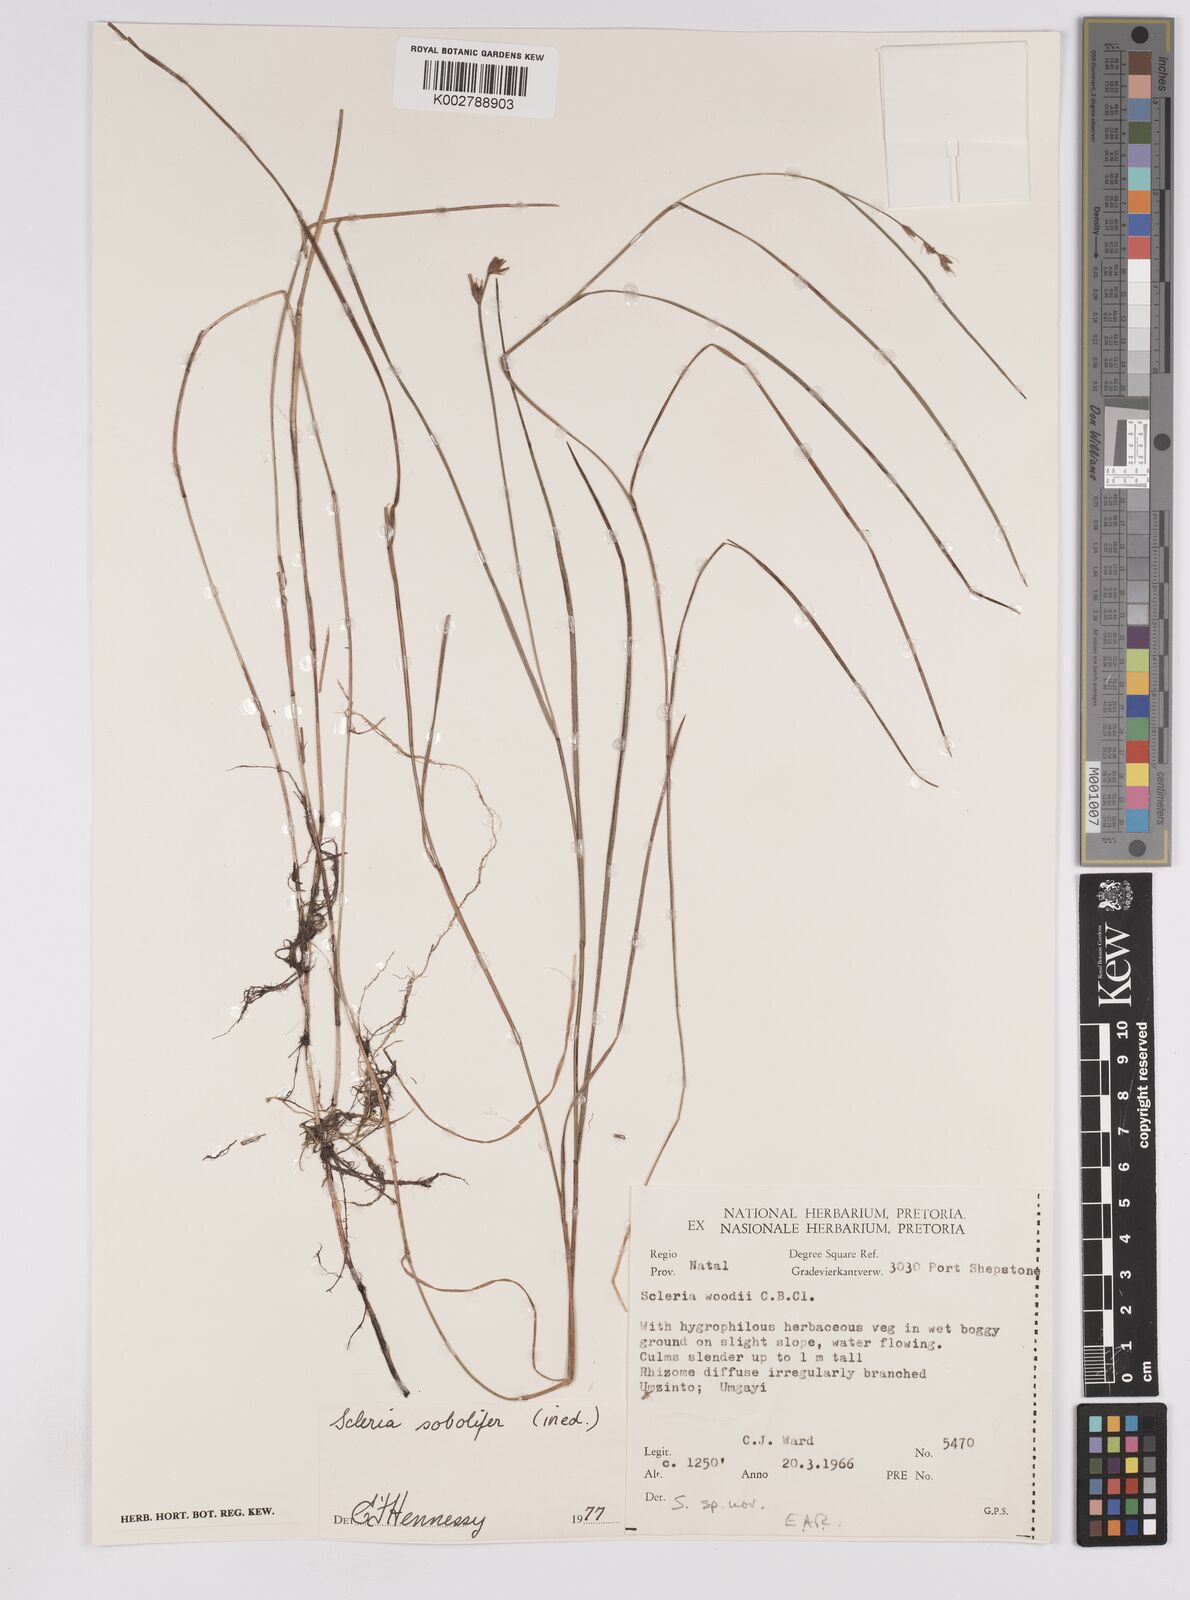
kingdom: Plantae
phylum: Tracheophyta
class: Liliopsida
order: Poales
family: Cyperaceae
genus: Scleria
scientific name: Scleria sobolifera
